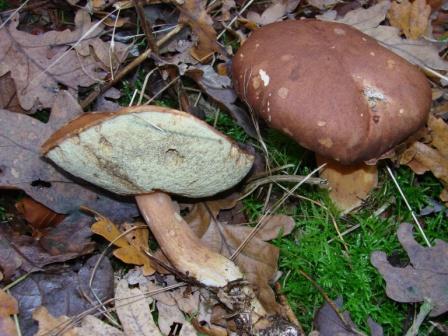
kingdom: Fungi
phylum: Basidiomycota
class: Agaricomycetes
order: Boletales
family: Boletaceae
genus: Imleria
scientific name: Imleria badia
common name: brunstokket rørhat
